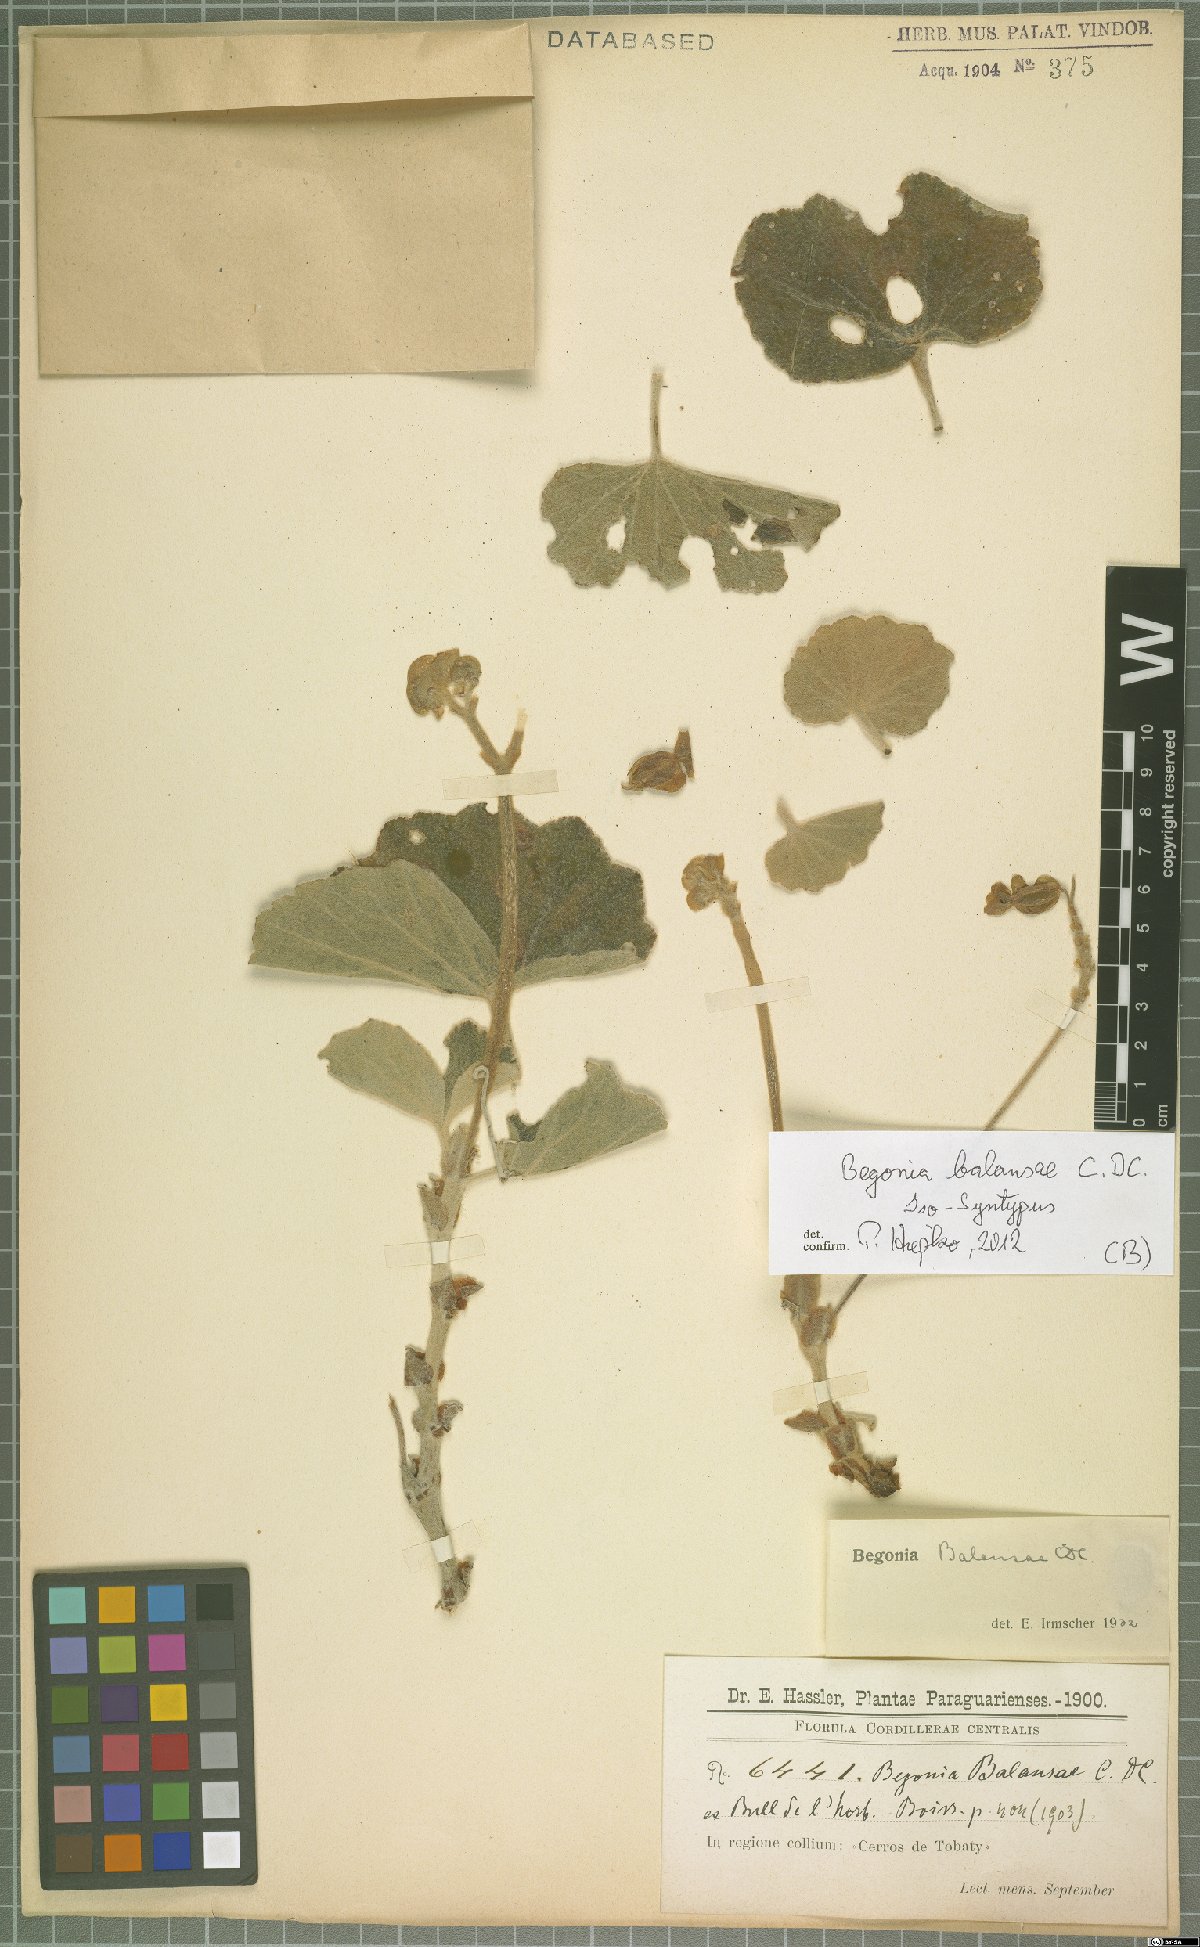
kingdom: Plantae
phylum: Tracheophyta
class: Magnoliopsida
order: Cucurbitales
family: Begoniaceae
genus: Begonia
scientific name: Begonia balansae
